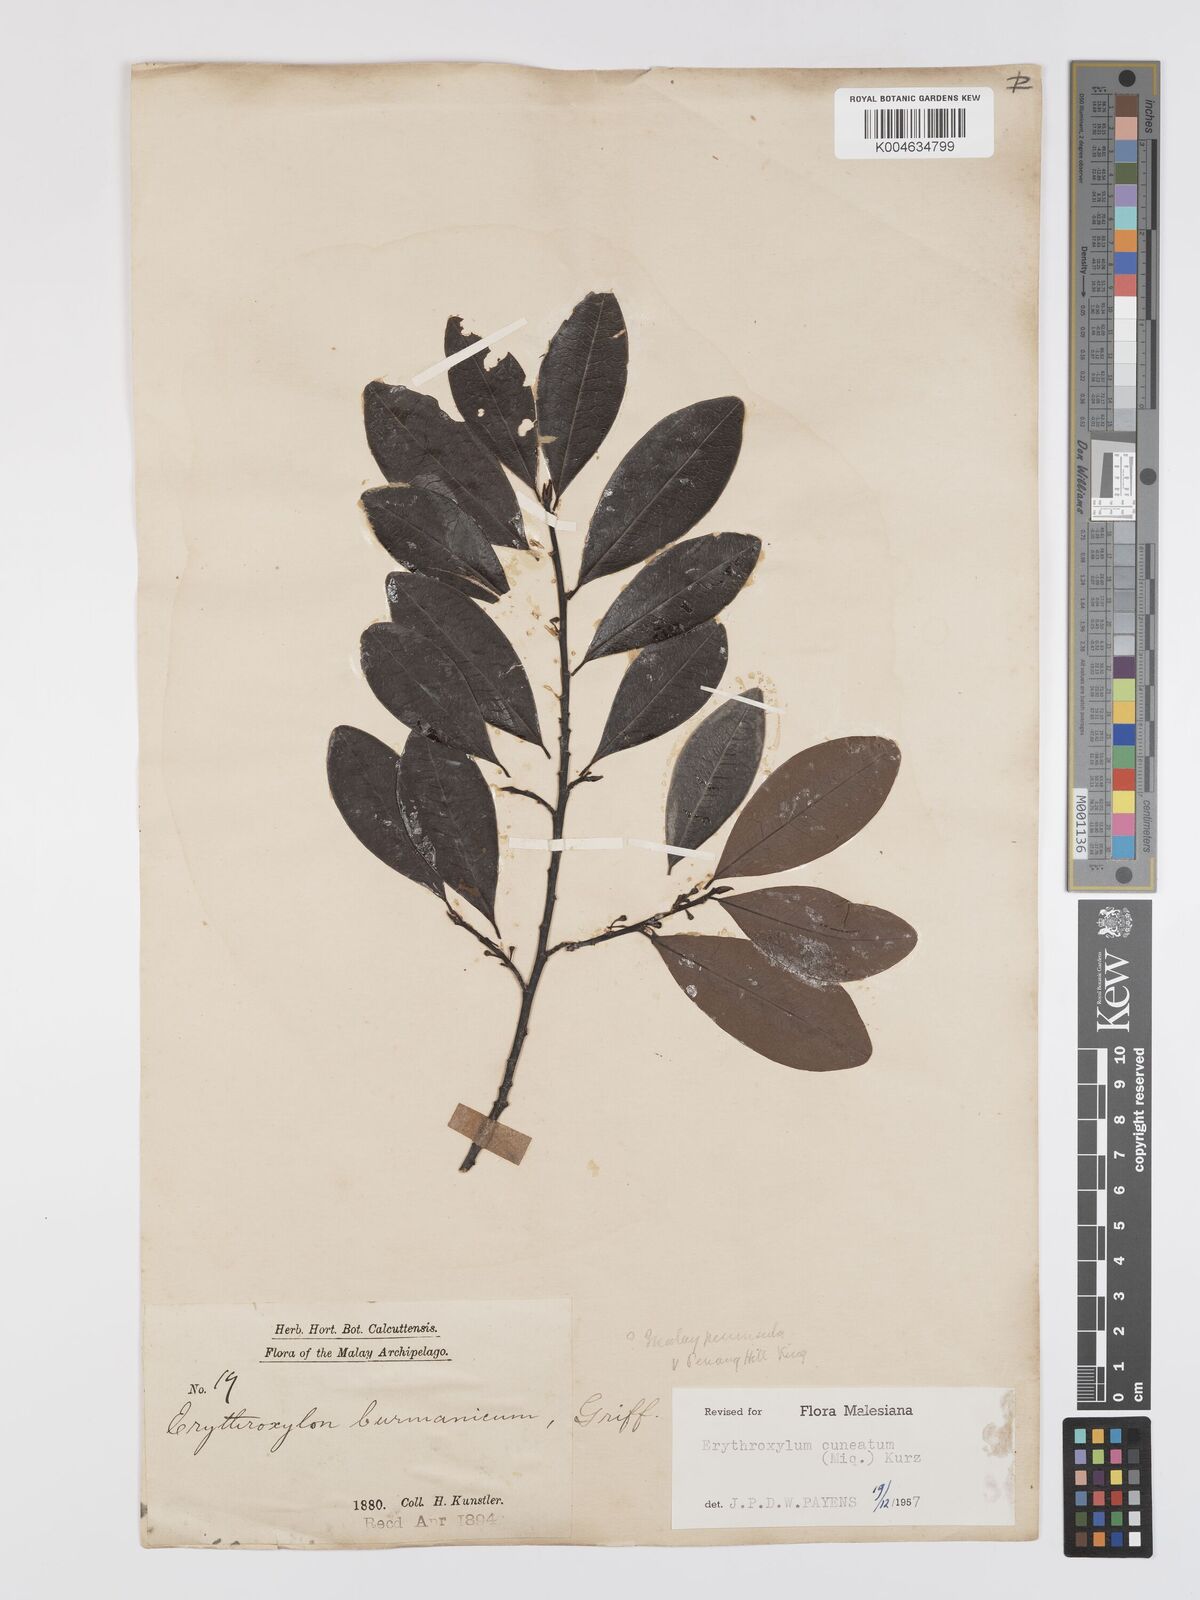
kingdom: Plantae
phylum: Tracheophyta
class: Magnoliopsida
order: Malpighiales
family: Erythroxylaceae
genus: Erythroxylum
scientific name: Erythroxylum cuneatum
